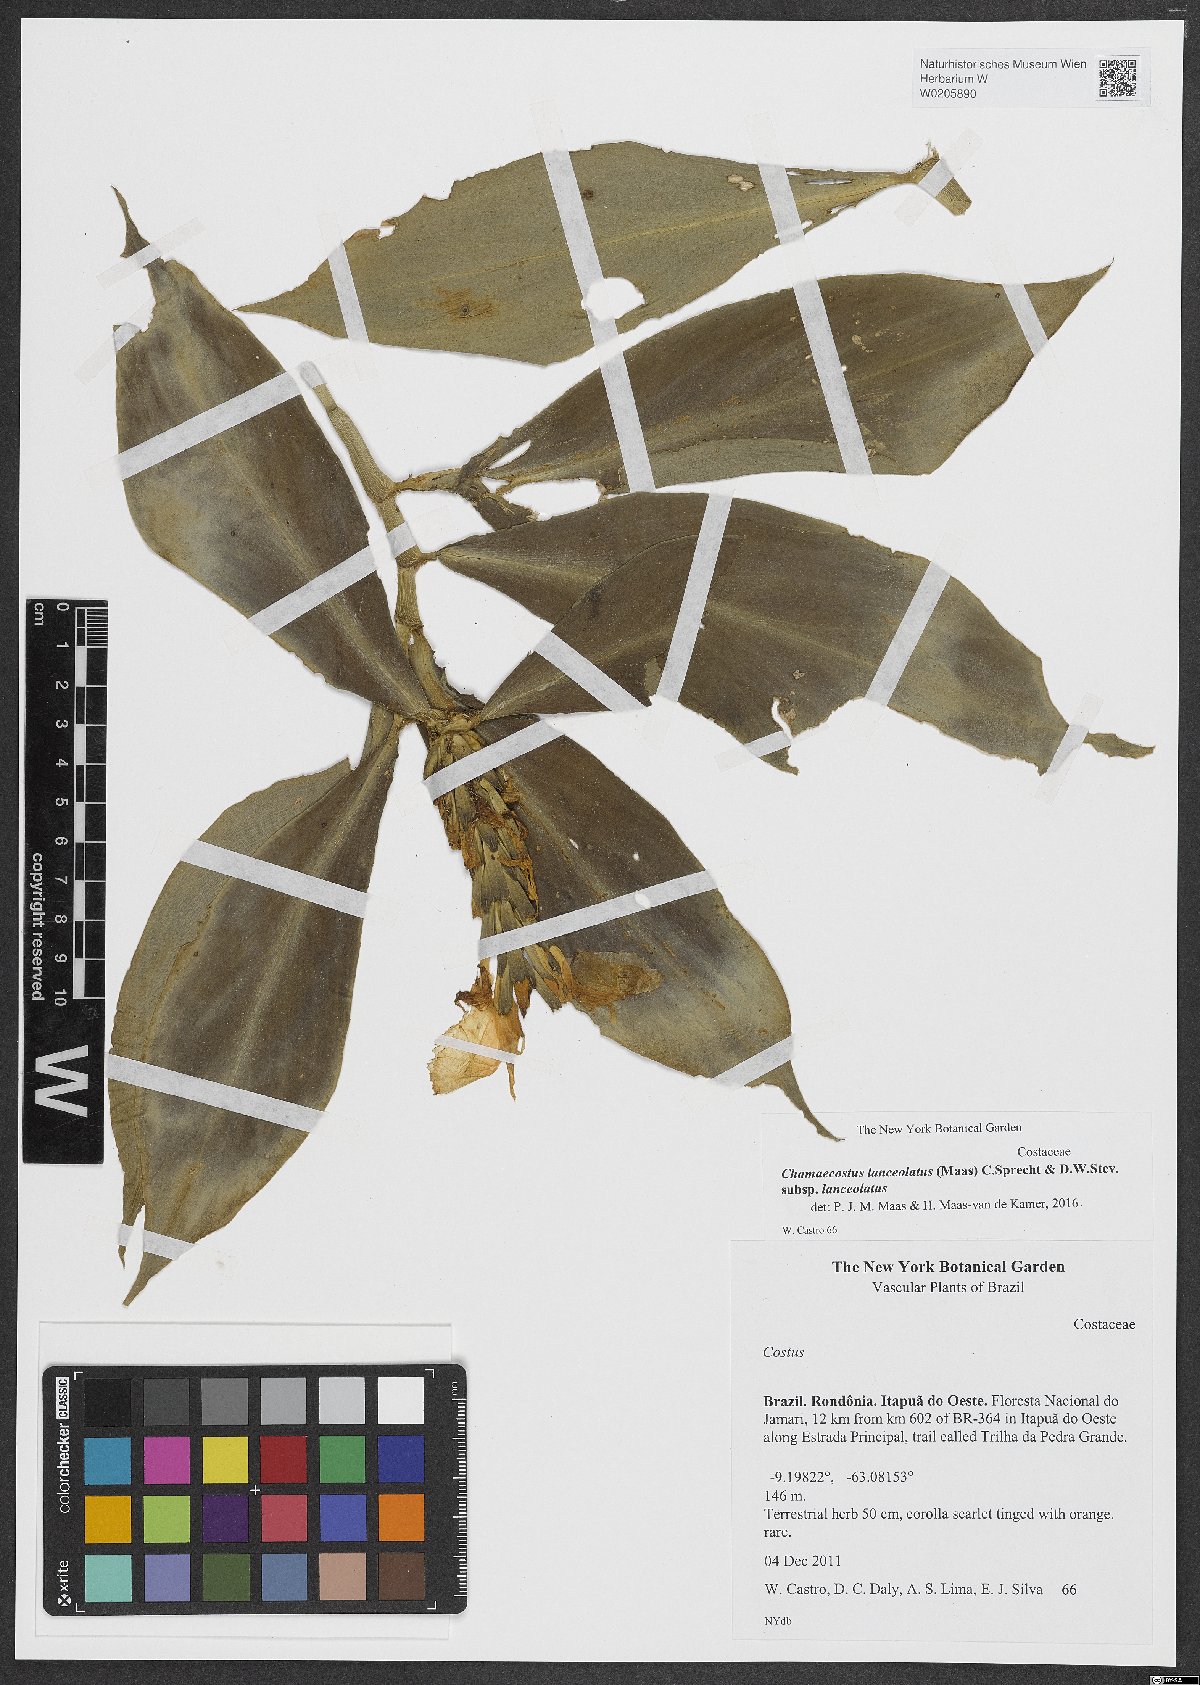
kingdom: Plantae
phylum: Tracheophyta
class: Liliopsida
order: Zingiberales
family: Costaceae
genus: Chamaecostus
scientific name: Chamaecostus lanceolatus
